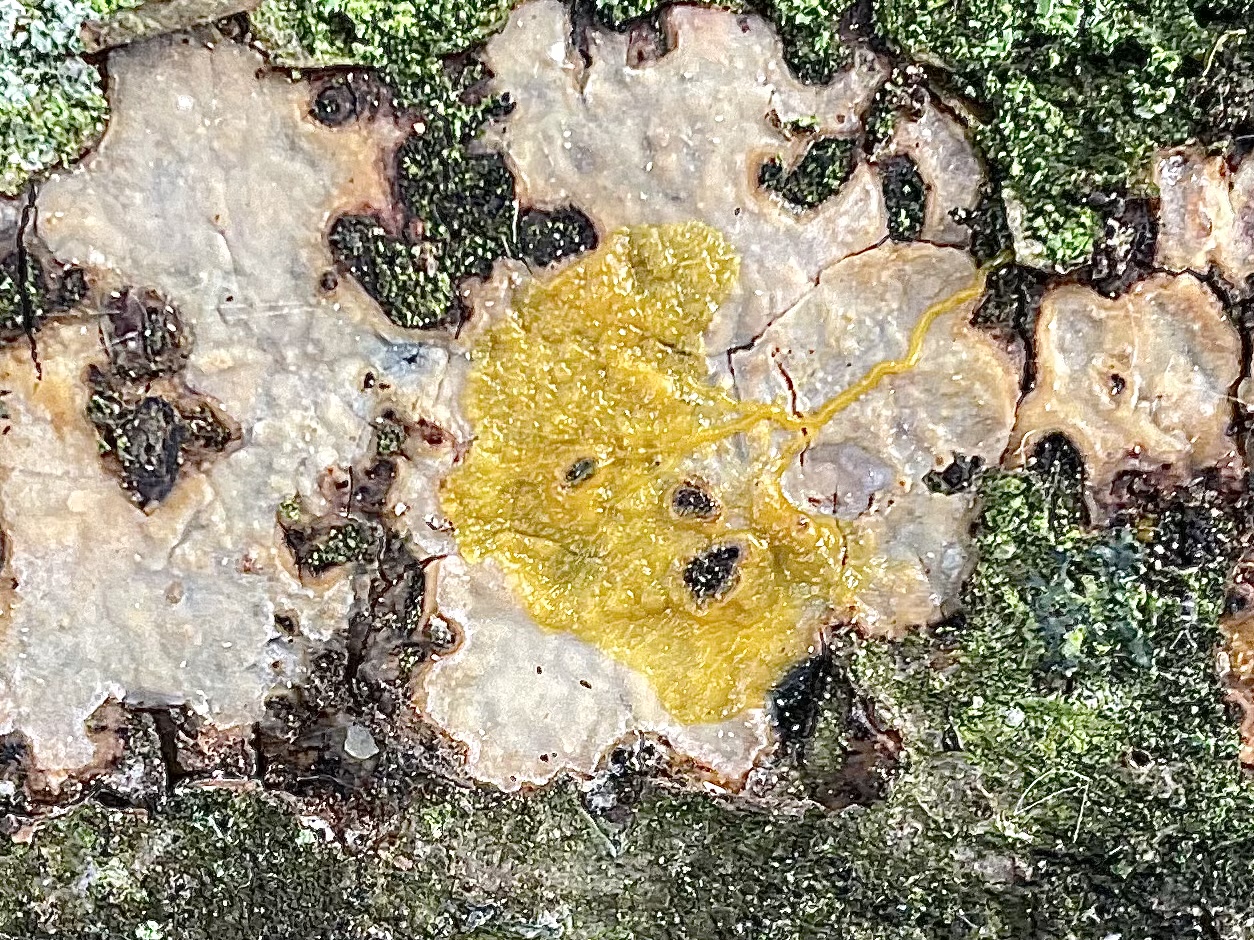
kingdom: Protozoa
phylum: Mycetozoa
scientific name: Mycetozoa
